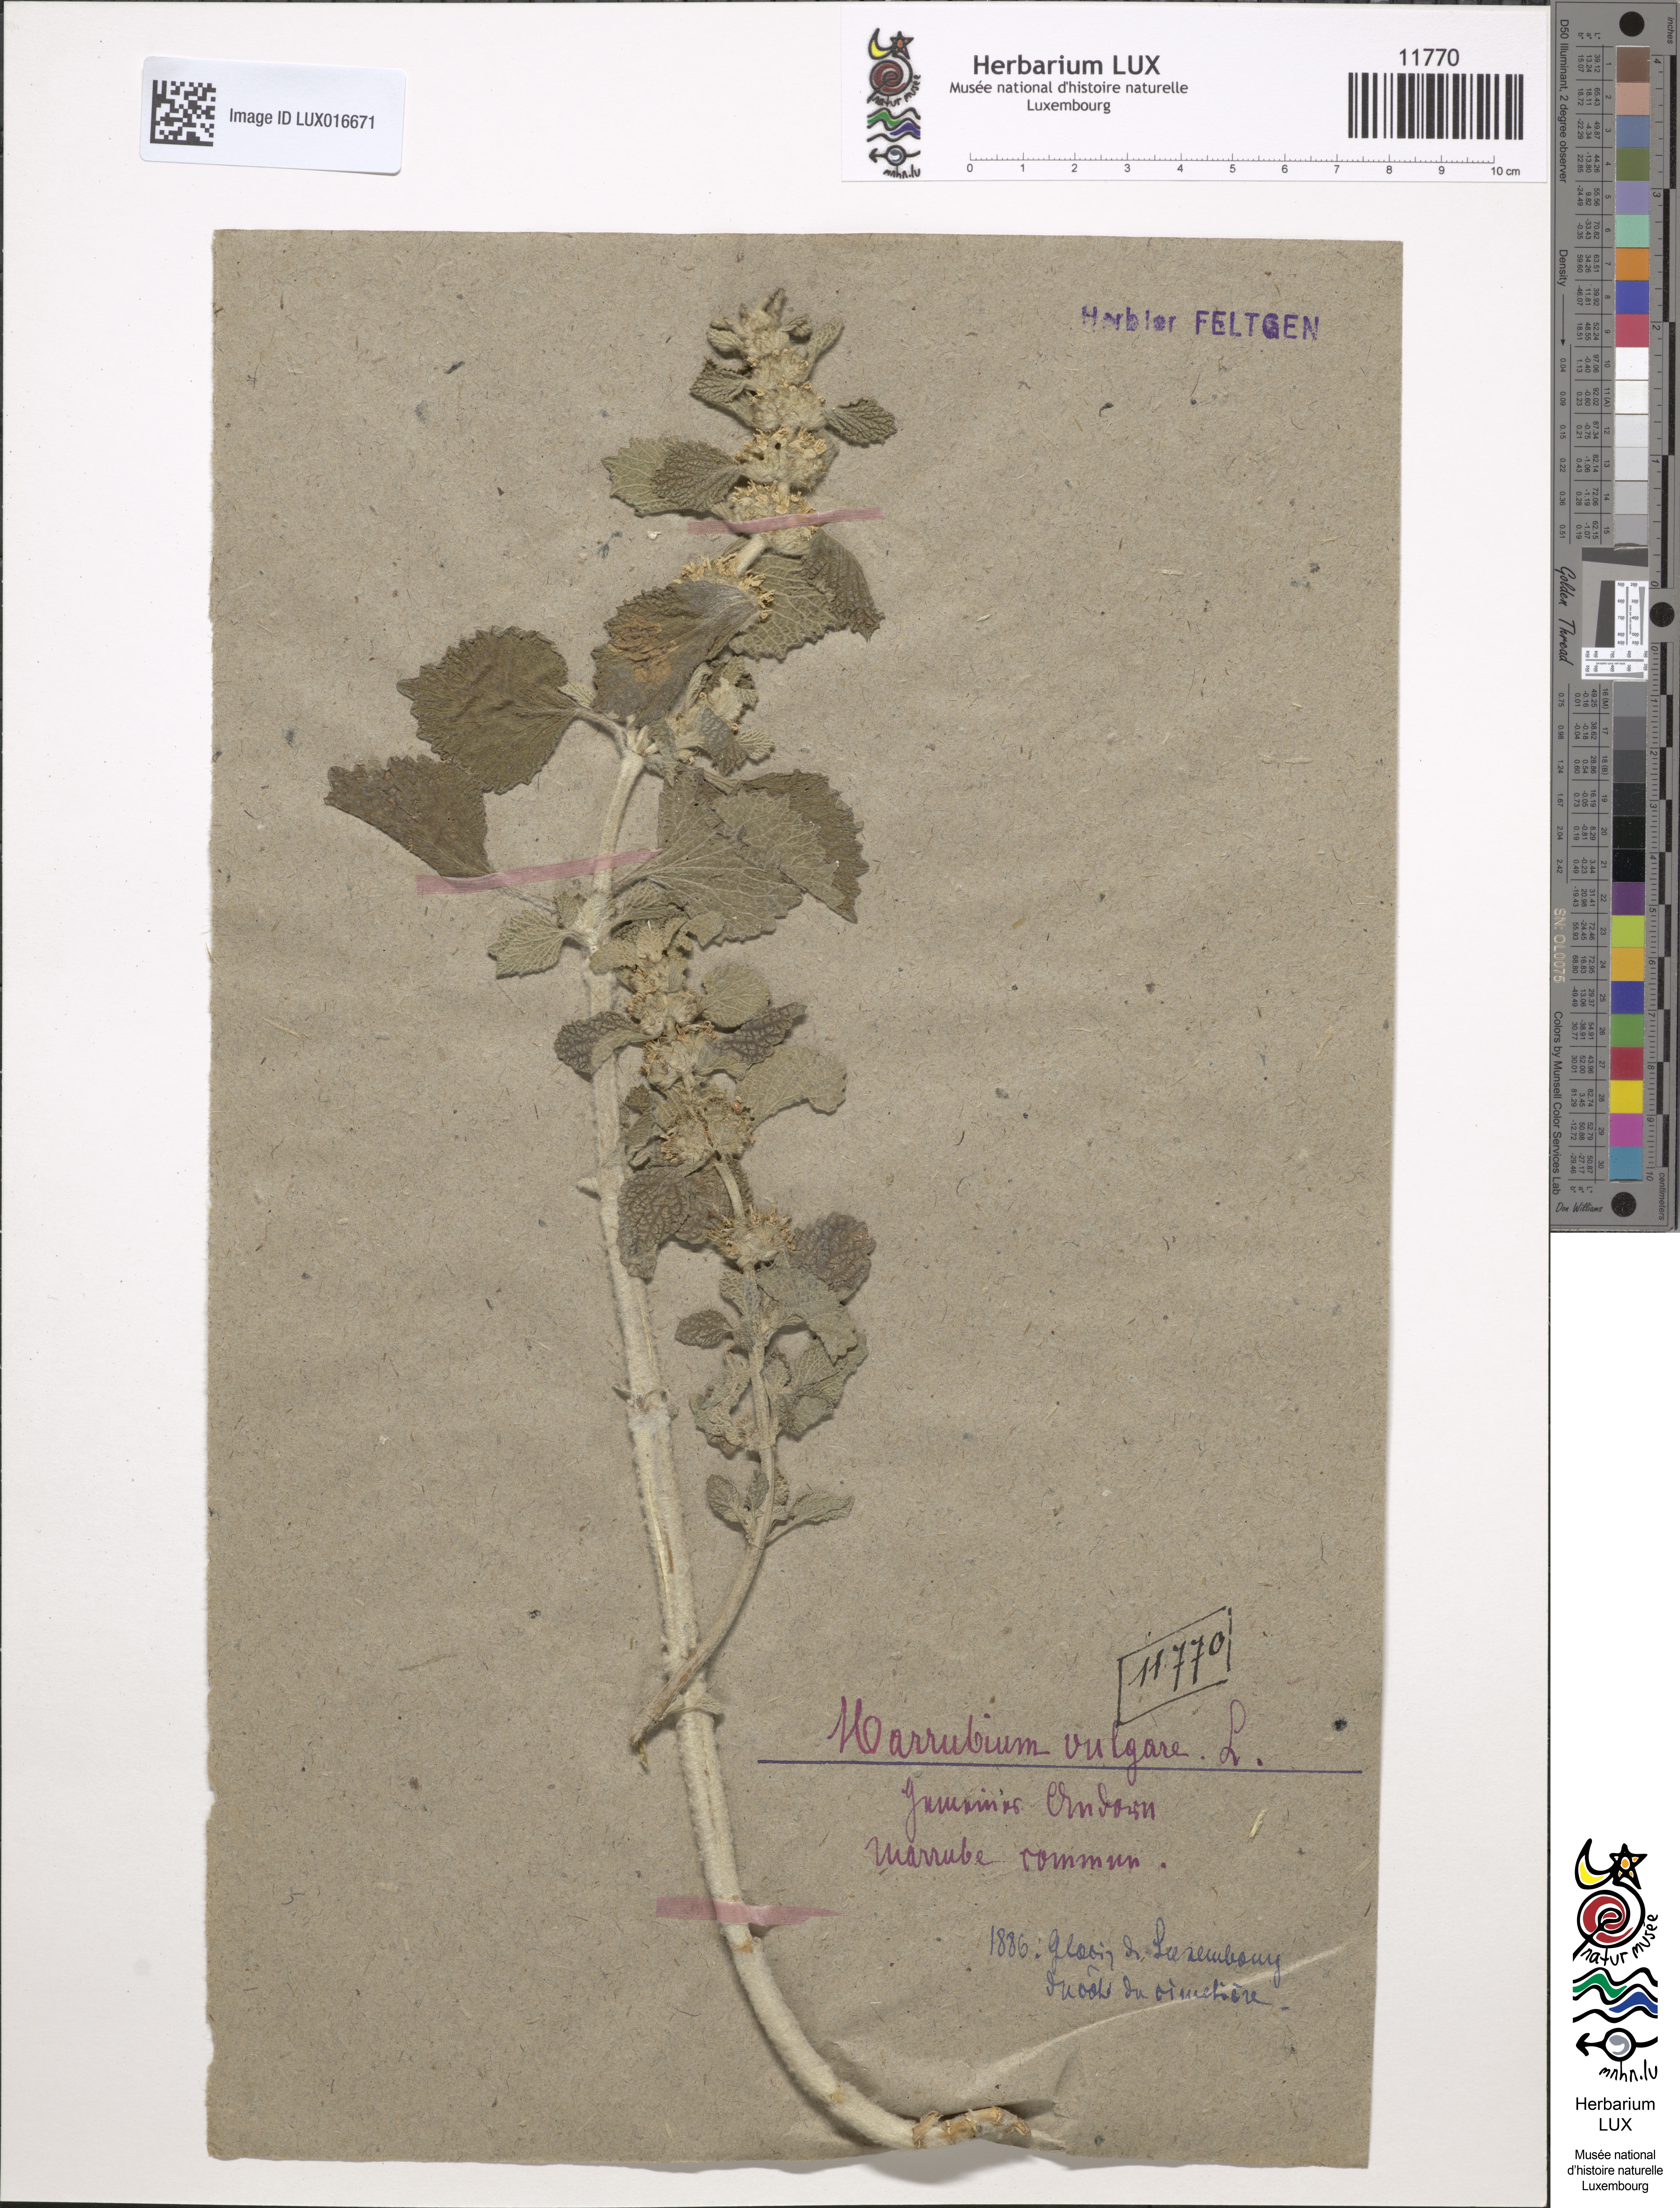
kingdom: Plantae
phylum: Tracheophyta
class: Magnoliopsida
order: Lamiales
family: Lamiaceae
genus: Marrubium
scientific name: Marrubium vulgare
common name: Horehound
